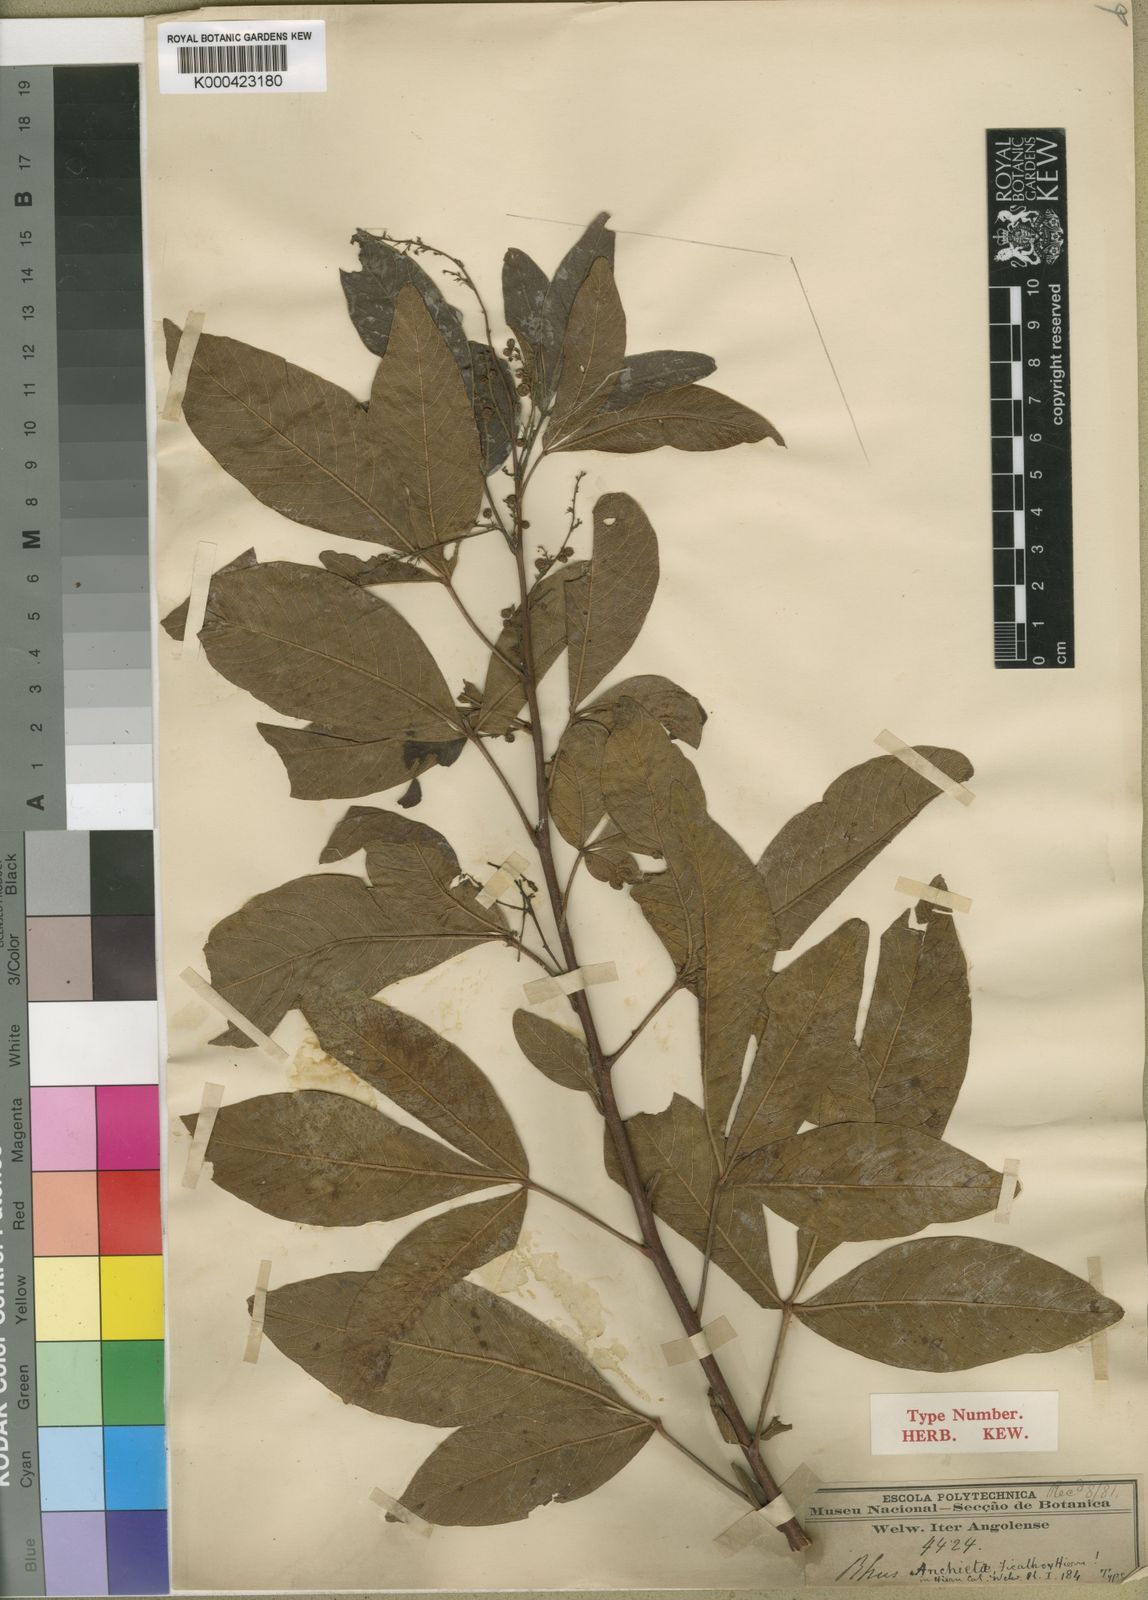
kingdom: Plantae
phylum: Tracheophyta
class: Magnoliopsida
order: Sapindales
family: Anacardiaceae
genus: Searsia
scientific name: Searsia anchietae
